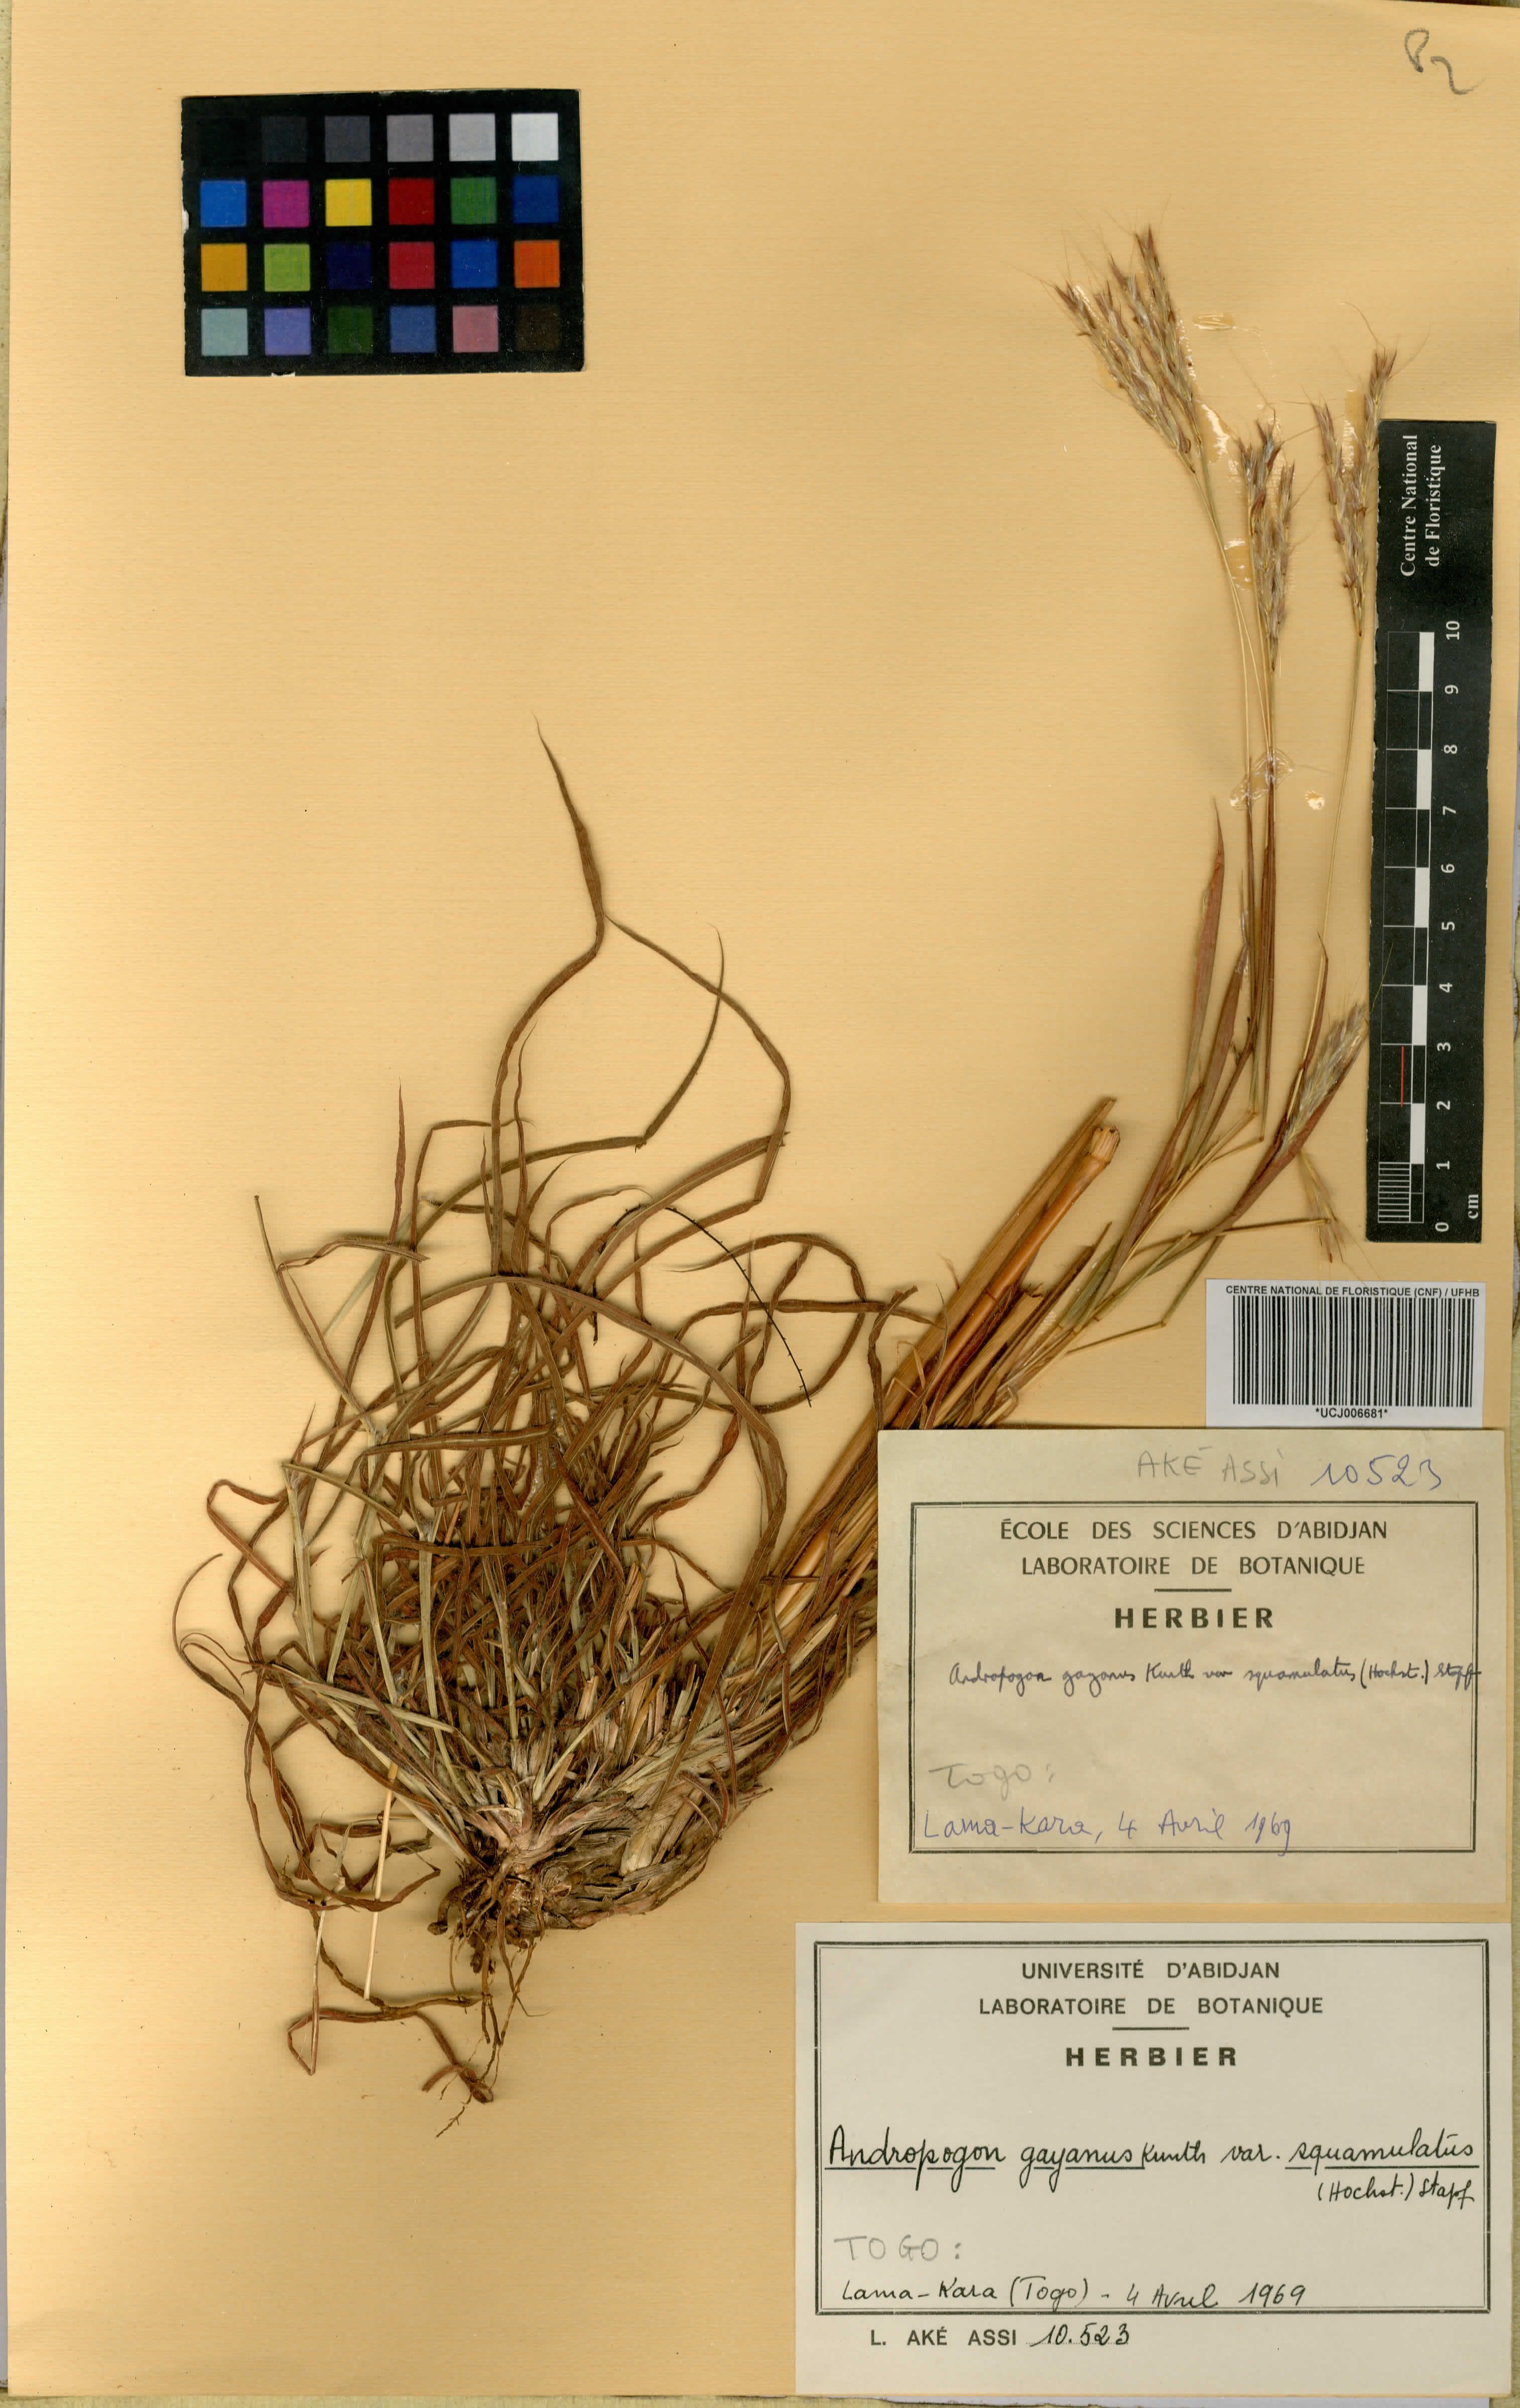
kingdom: Plantae
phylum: Tracheophyta
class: Liliopsida
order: Poales
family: Poaceae
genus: Andropogon
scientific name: Andropogon gayanus
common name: Tambuki grass
